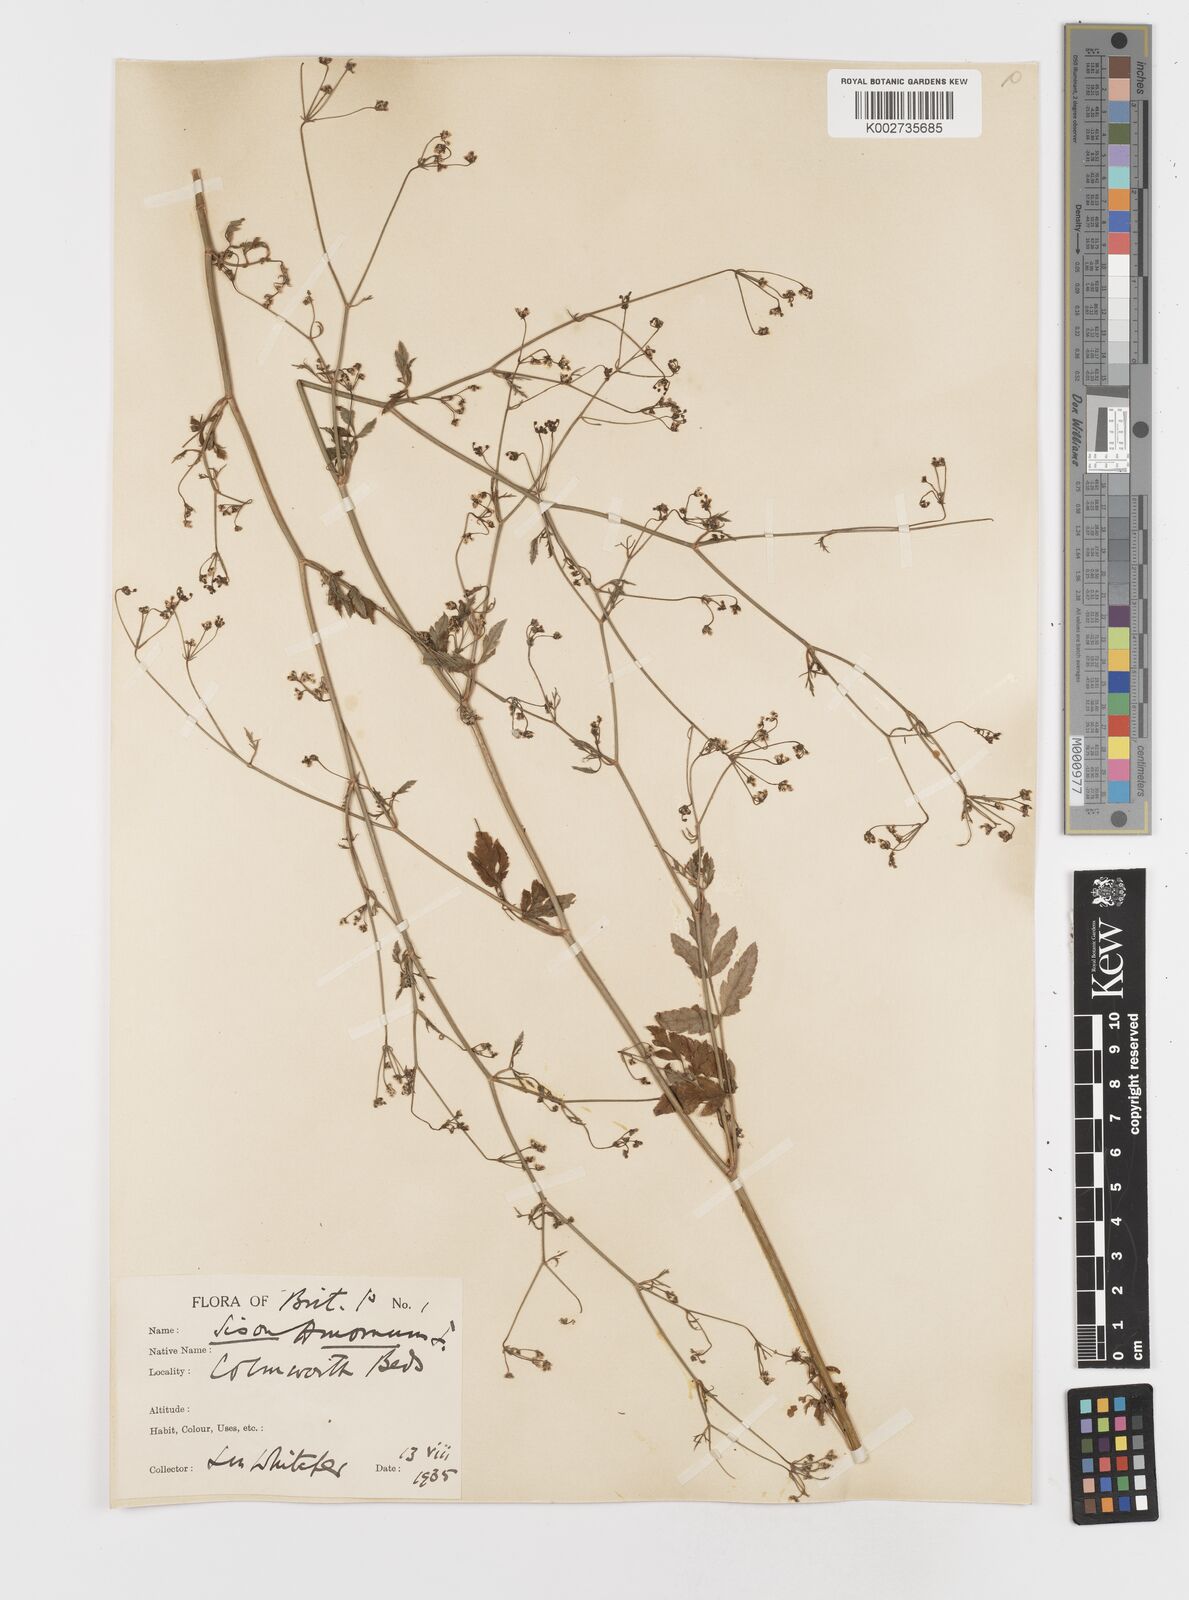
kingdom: Plantae
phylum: Tracheophyta
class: Magnoliopsida
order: Apiales
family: Apiaceae
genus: Sison
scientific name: Sison amomum
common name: Stone-parsley
